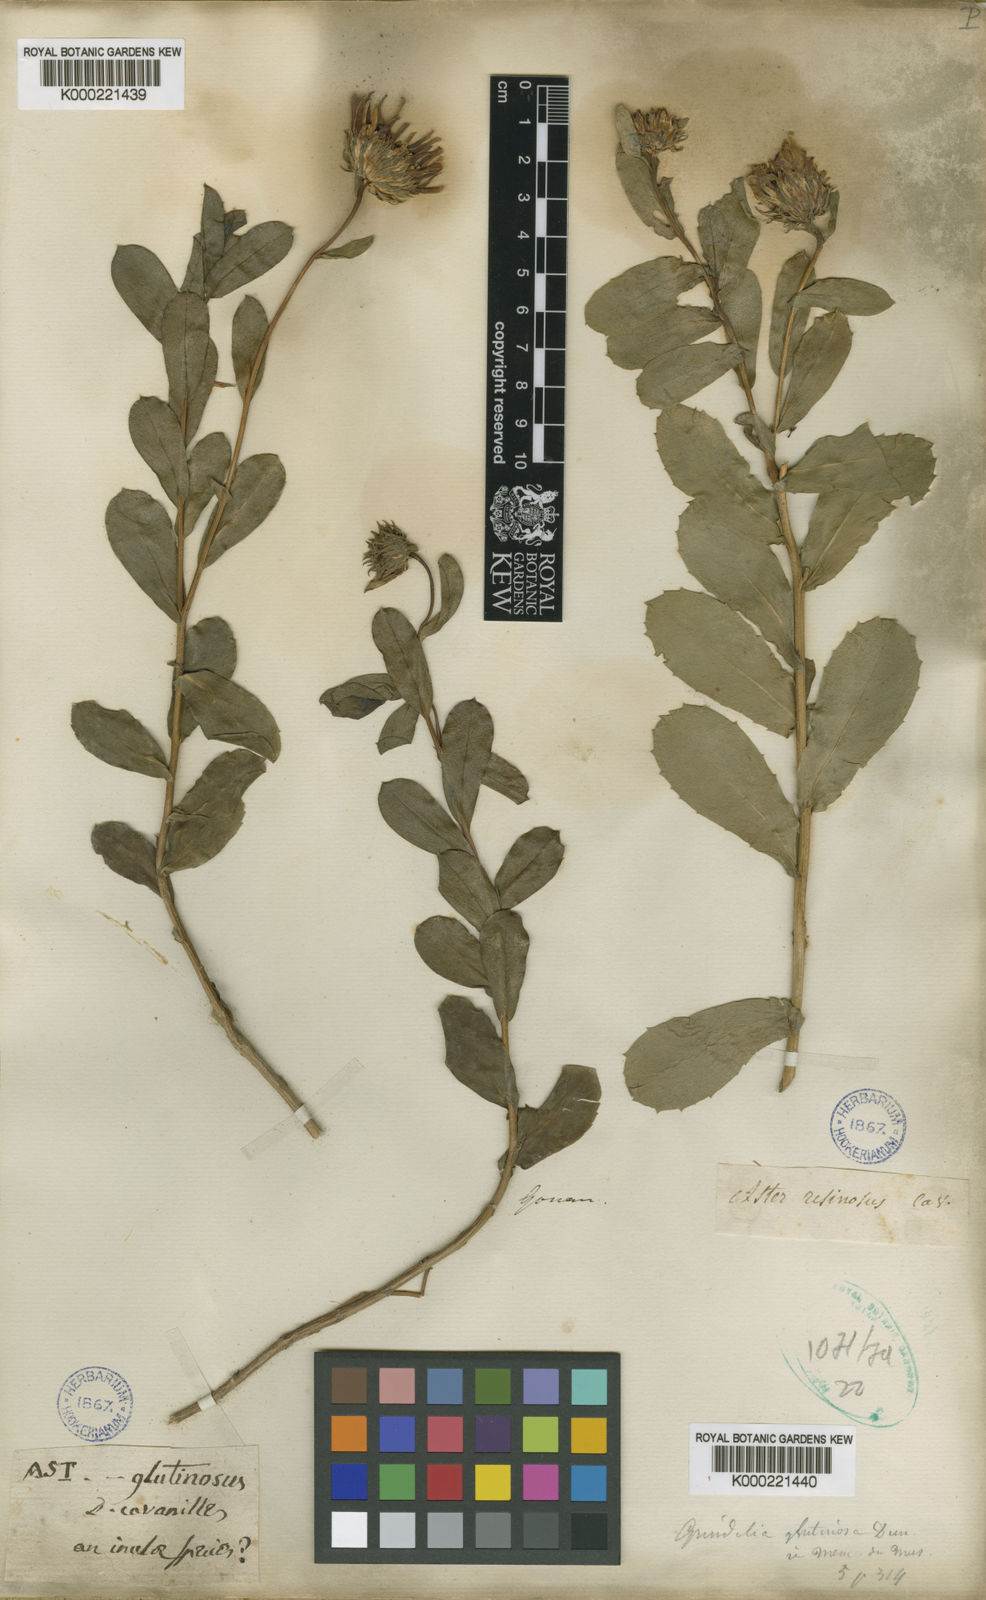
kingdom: Plantae
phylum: Tracheophyta
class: Magnoliopsida
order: Asterales
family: Asteraceae
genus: Haplopappus
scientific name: Haplopappus chrysanthemifolius
